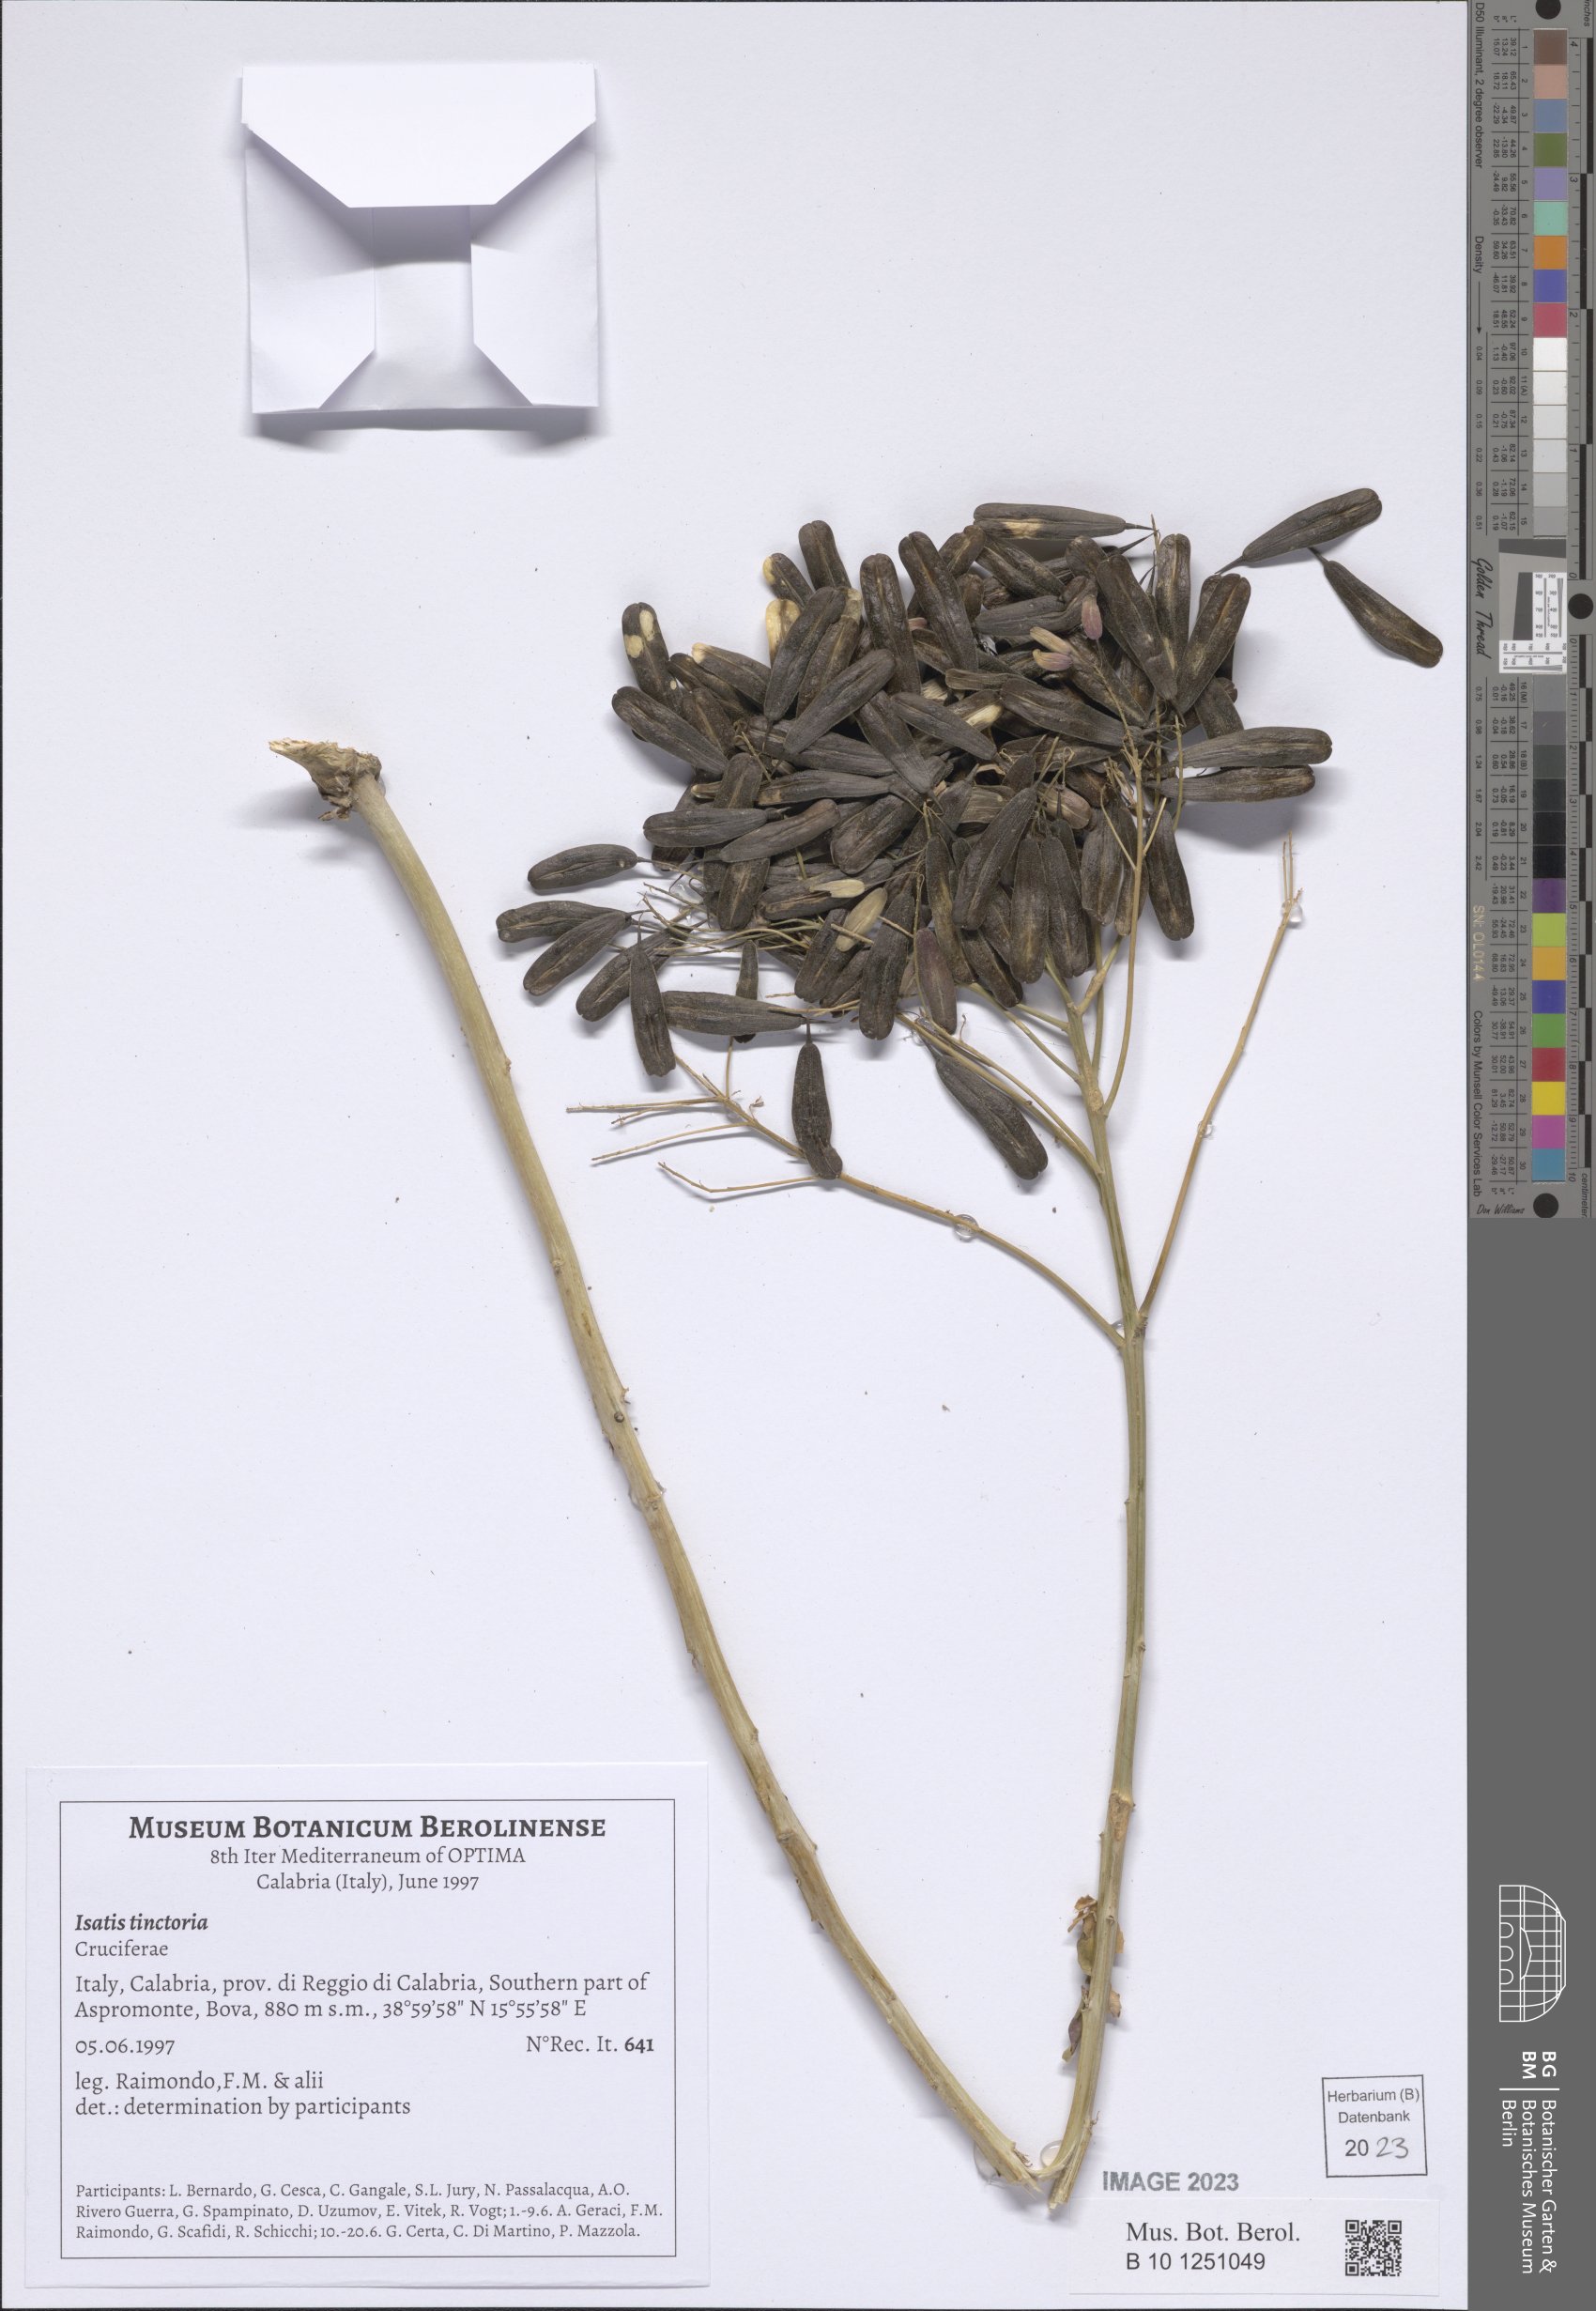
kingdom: Plantae
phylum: Tracheophyta
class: Magnoliopsida
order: Brassicales
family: Brassicaceae
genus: Isatis
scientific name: Isatis tinctoria
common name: Woad
